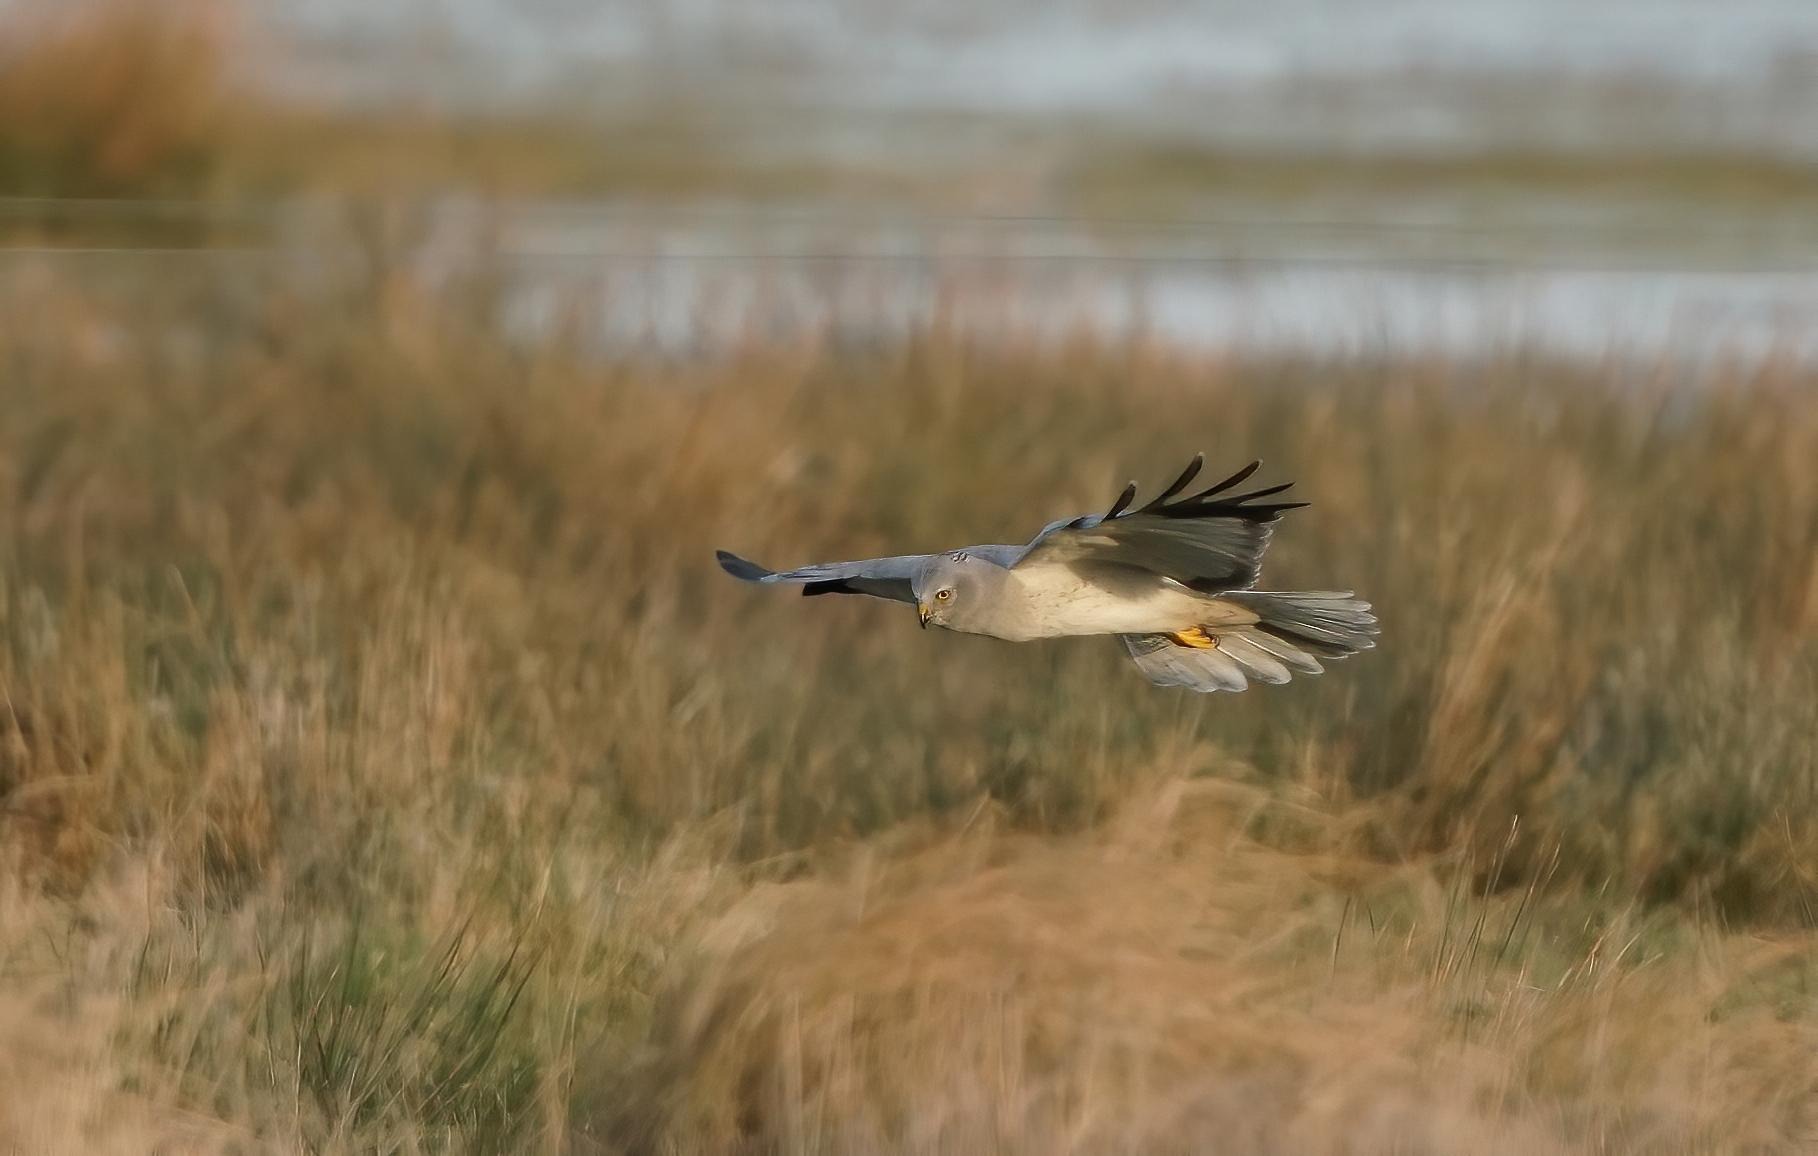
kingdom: Animalia
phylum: Chordata
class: Aves
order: Accipitriformes
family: Accipitridae
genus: Circus
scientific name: Circus cyaneus
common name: Blå kærhøg
